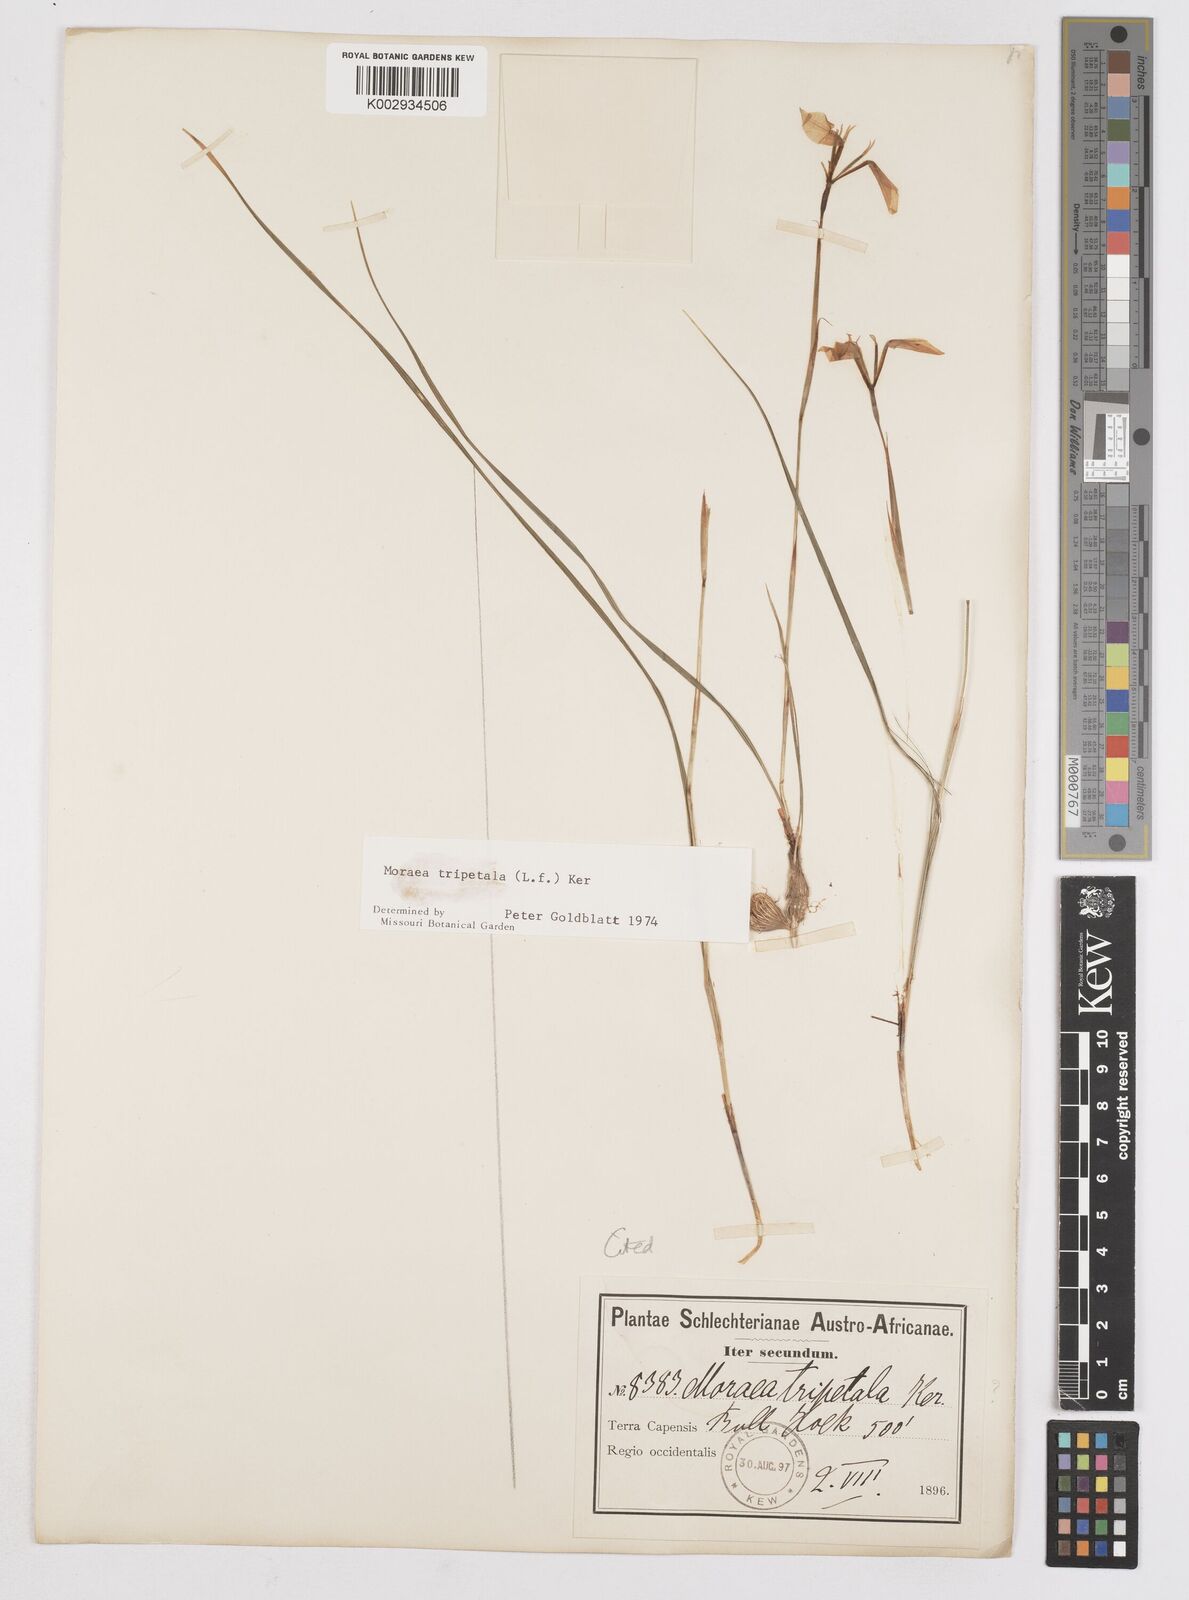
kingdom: Plantae
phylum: Tracheophyta
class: Liliopsida
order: Asparagales
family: Iridaceae
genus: Moraea
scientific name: Moraea tripetala
